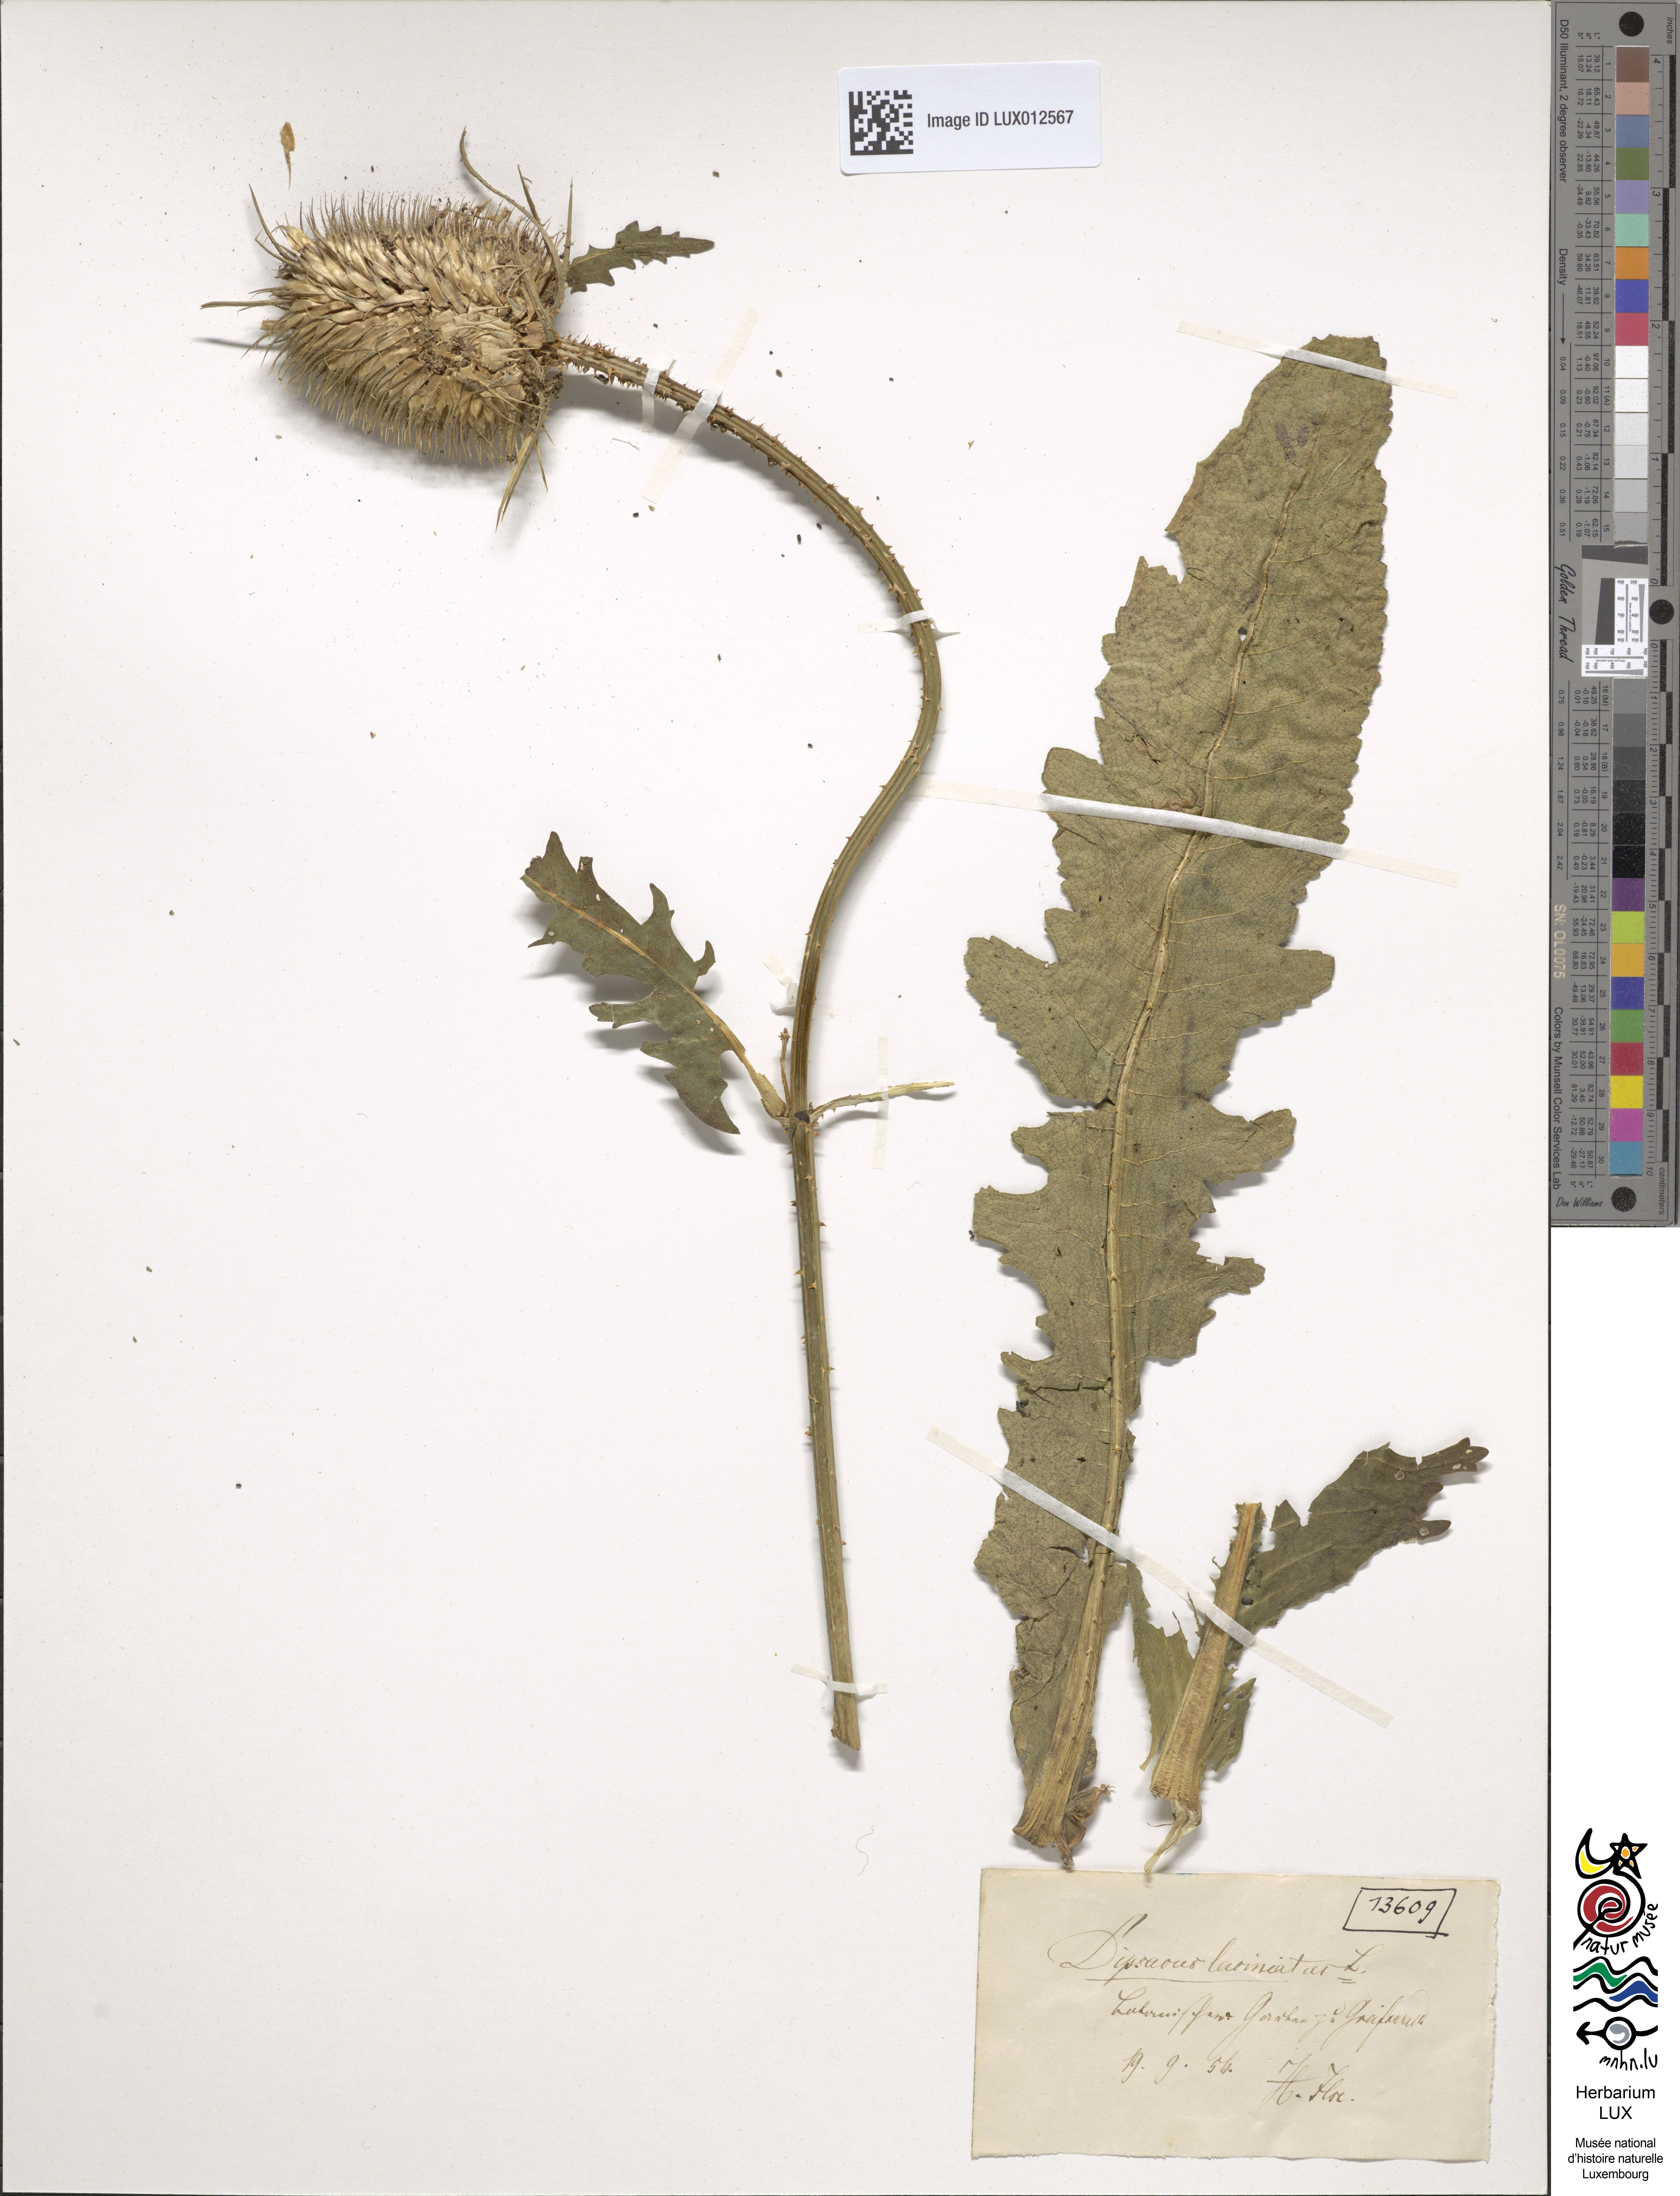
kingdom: Plantae
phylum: Tracheophyta
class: Magnoliopsida
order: Dipsacales
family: Caprifoliaceae
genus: Dipsacus
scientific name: Dipsacus laciniatus
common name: Cut-leaved teasel
